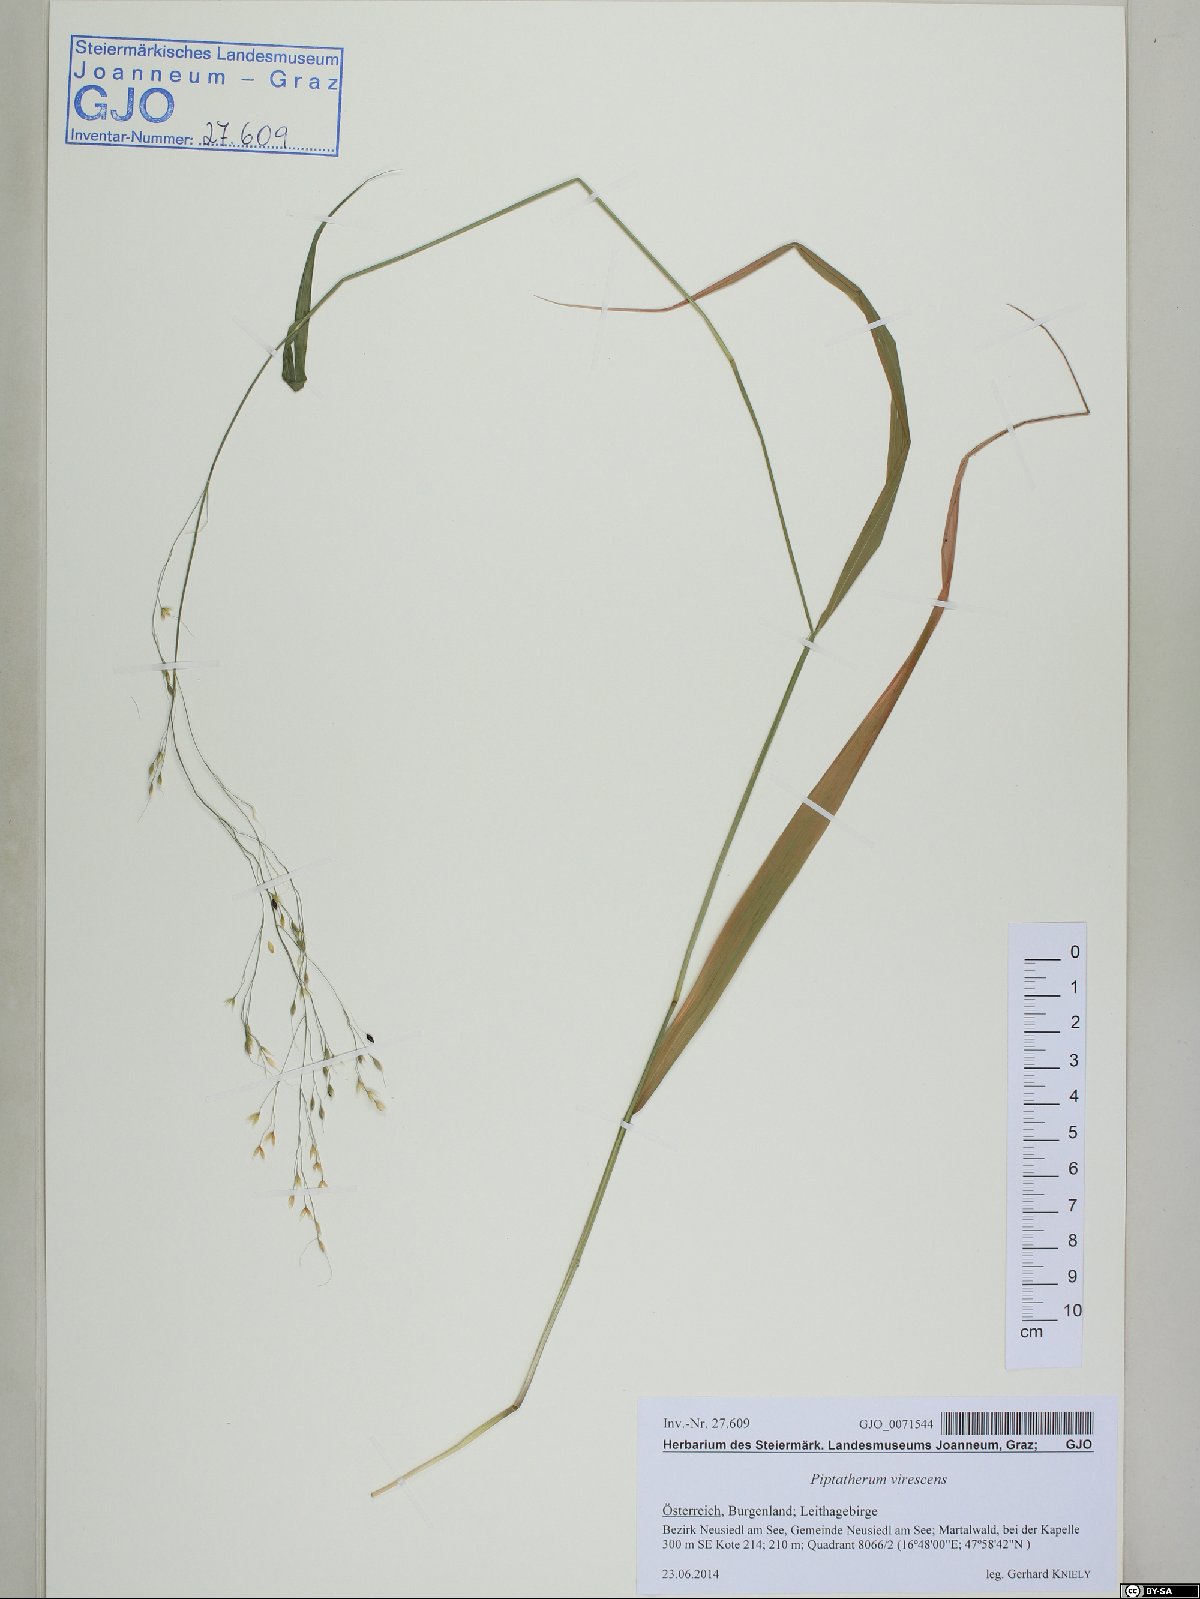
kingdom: Plantae
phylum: Tracheophyta
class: Liliopsida
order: Poales
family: Poaceae
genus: Achnatherum
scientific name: Achnatherum virescens
